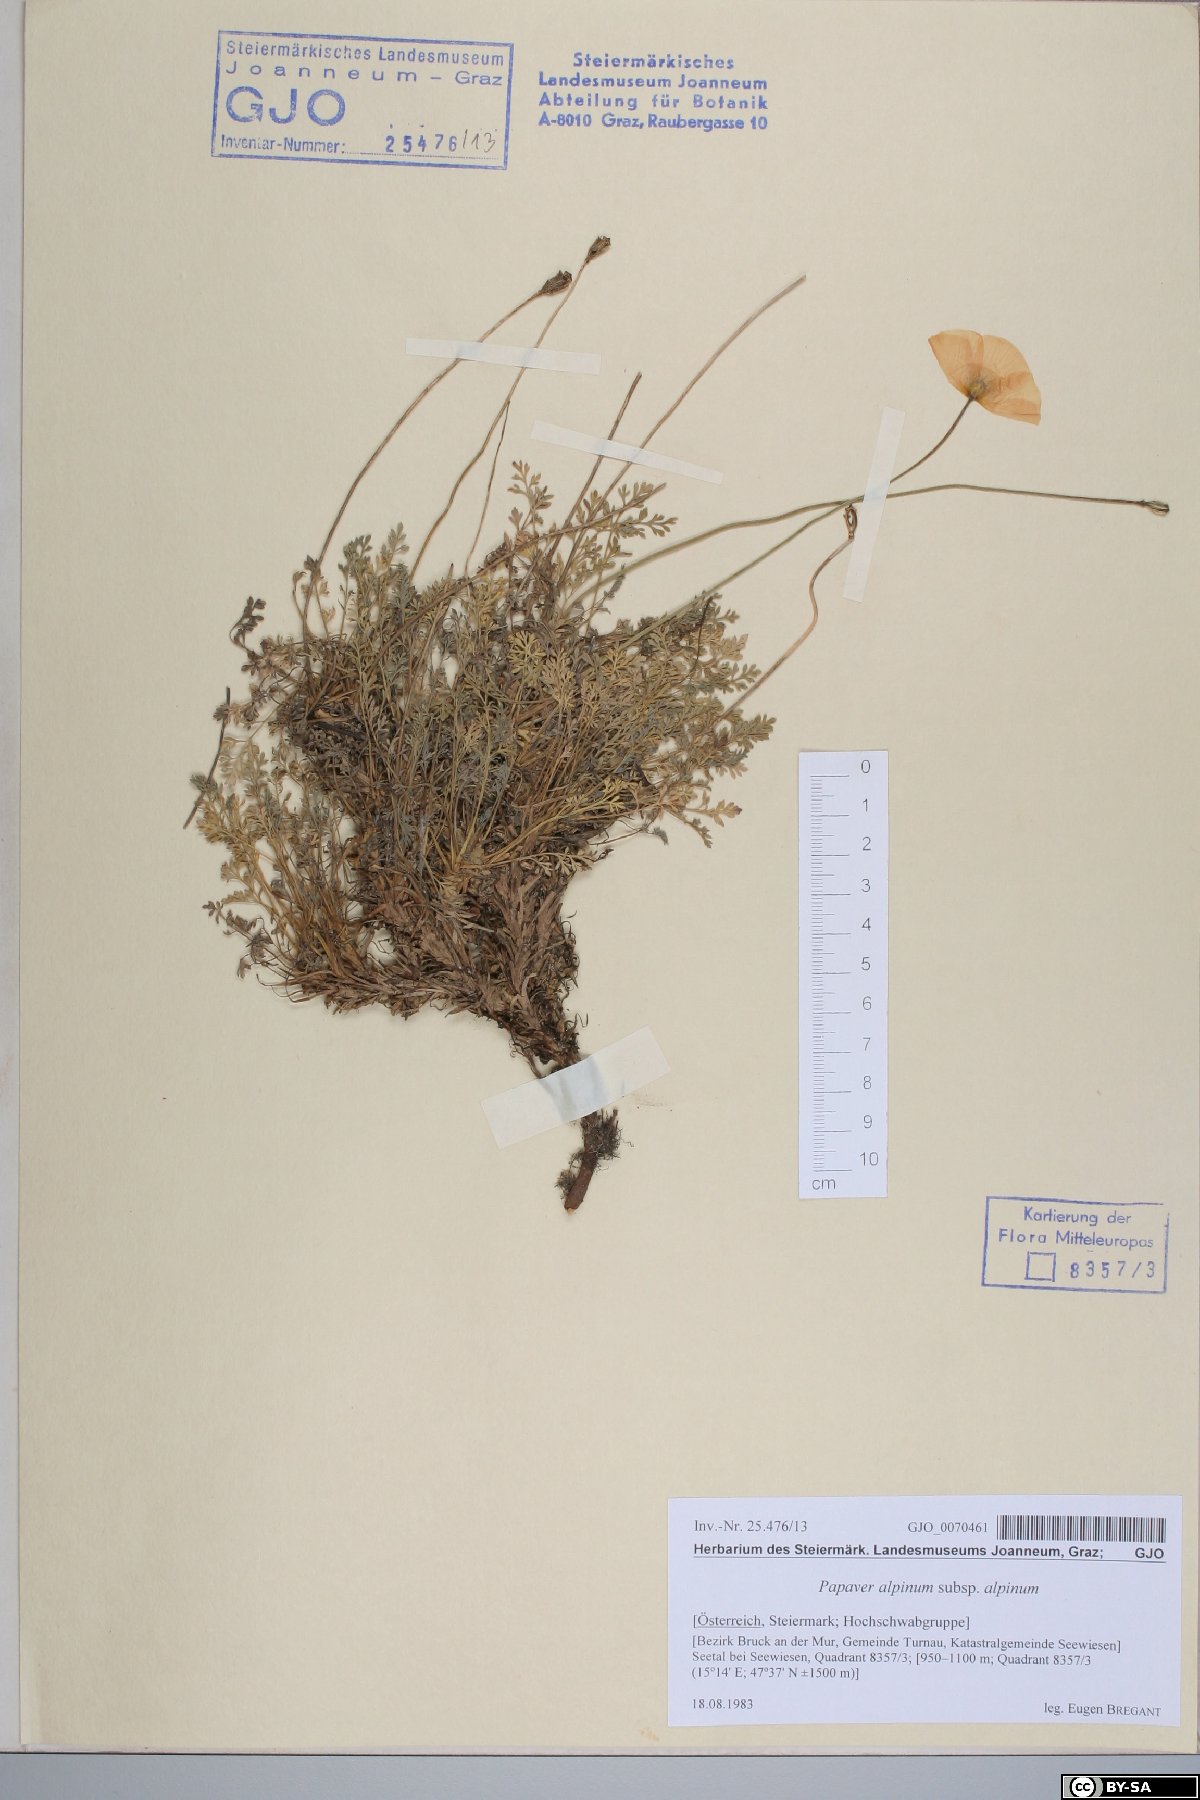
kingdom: Plantae
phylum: Tracheophyta
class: Magnoliopsida
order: Ranunculales
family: Papaveraceae
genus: Papaver
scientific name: Papaver alpinum
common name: Austrian poppy
